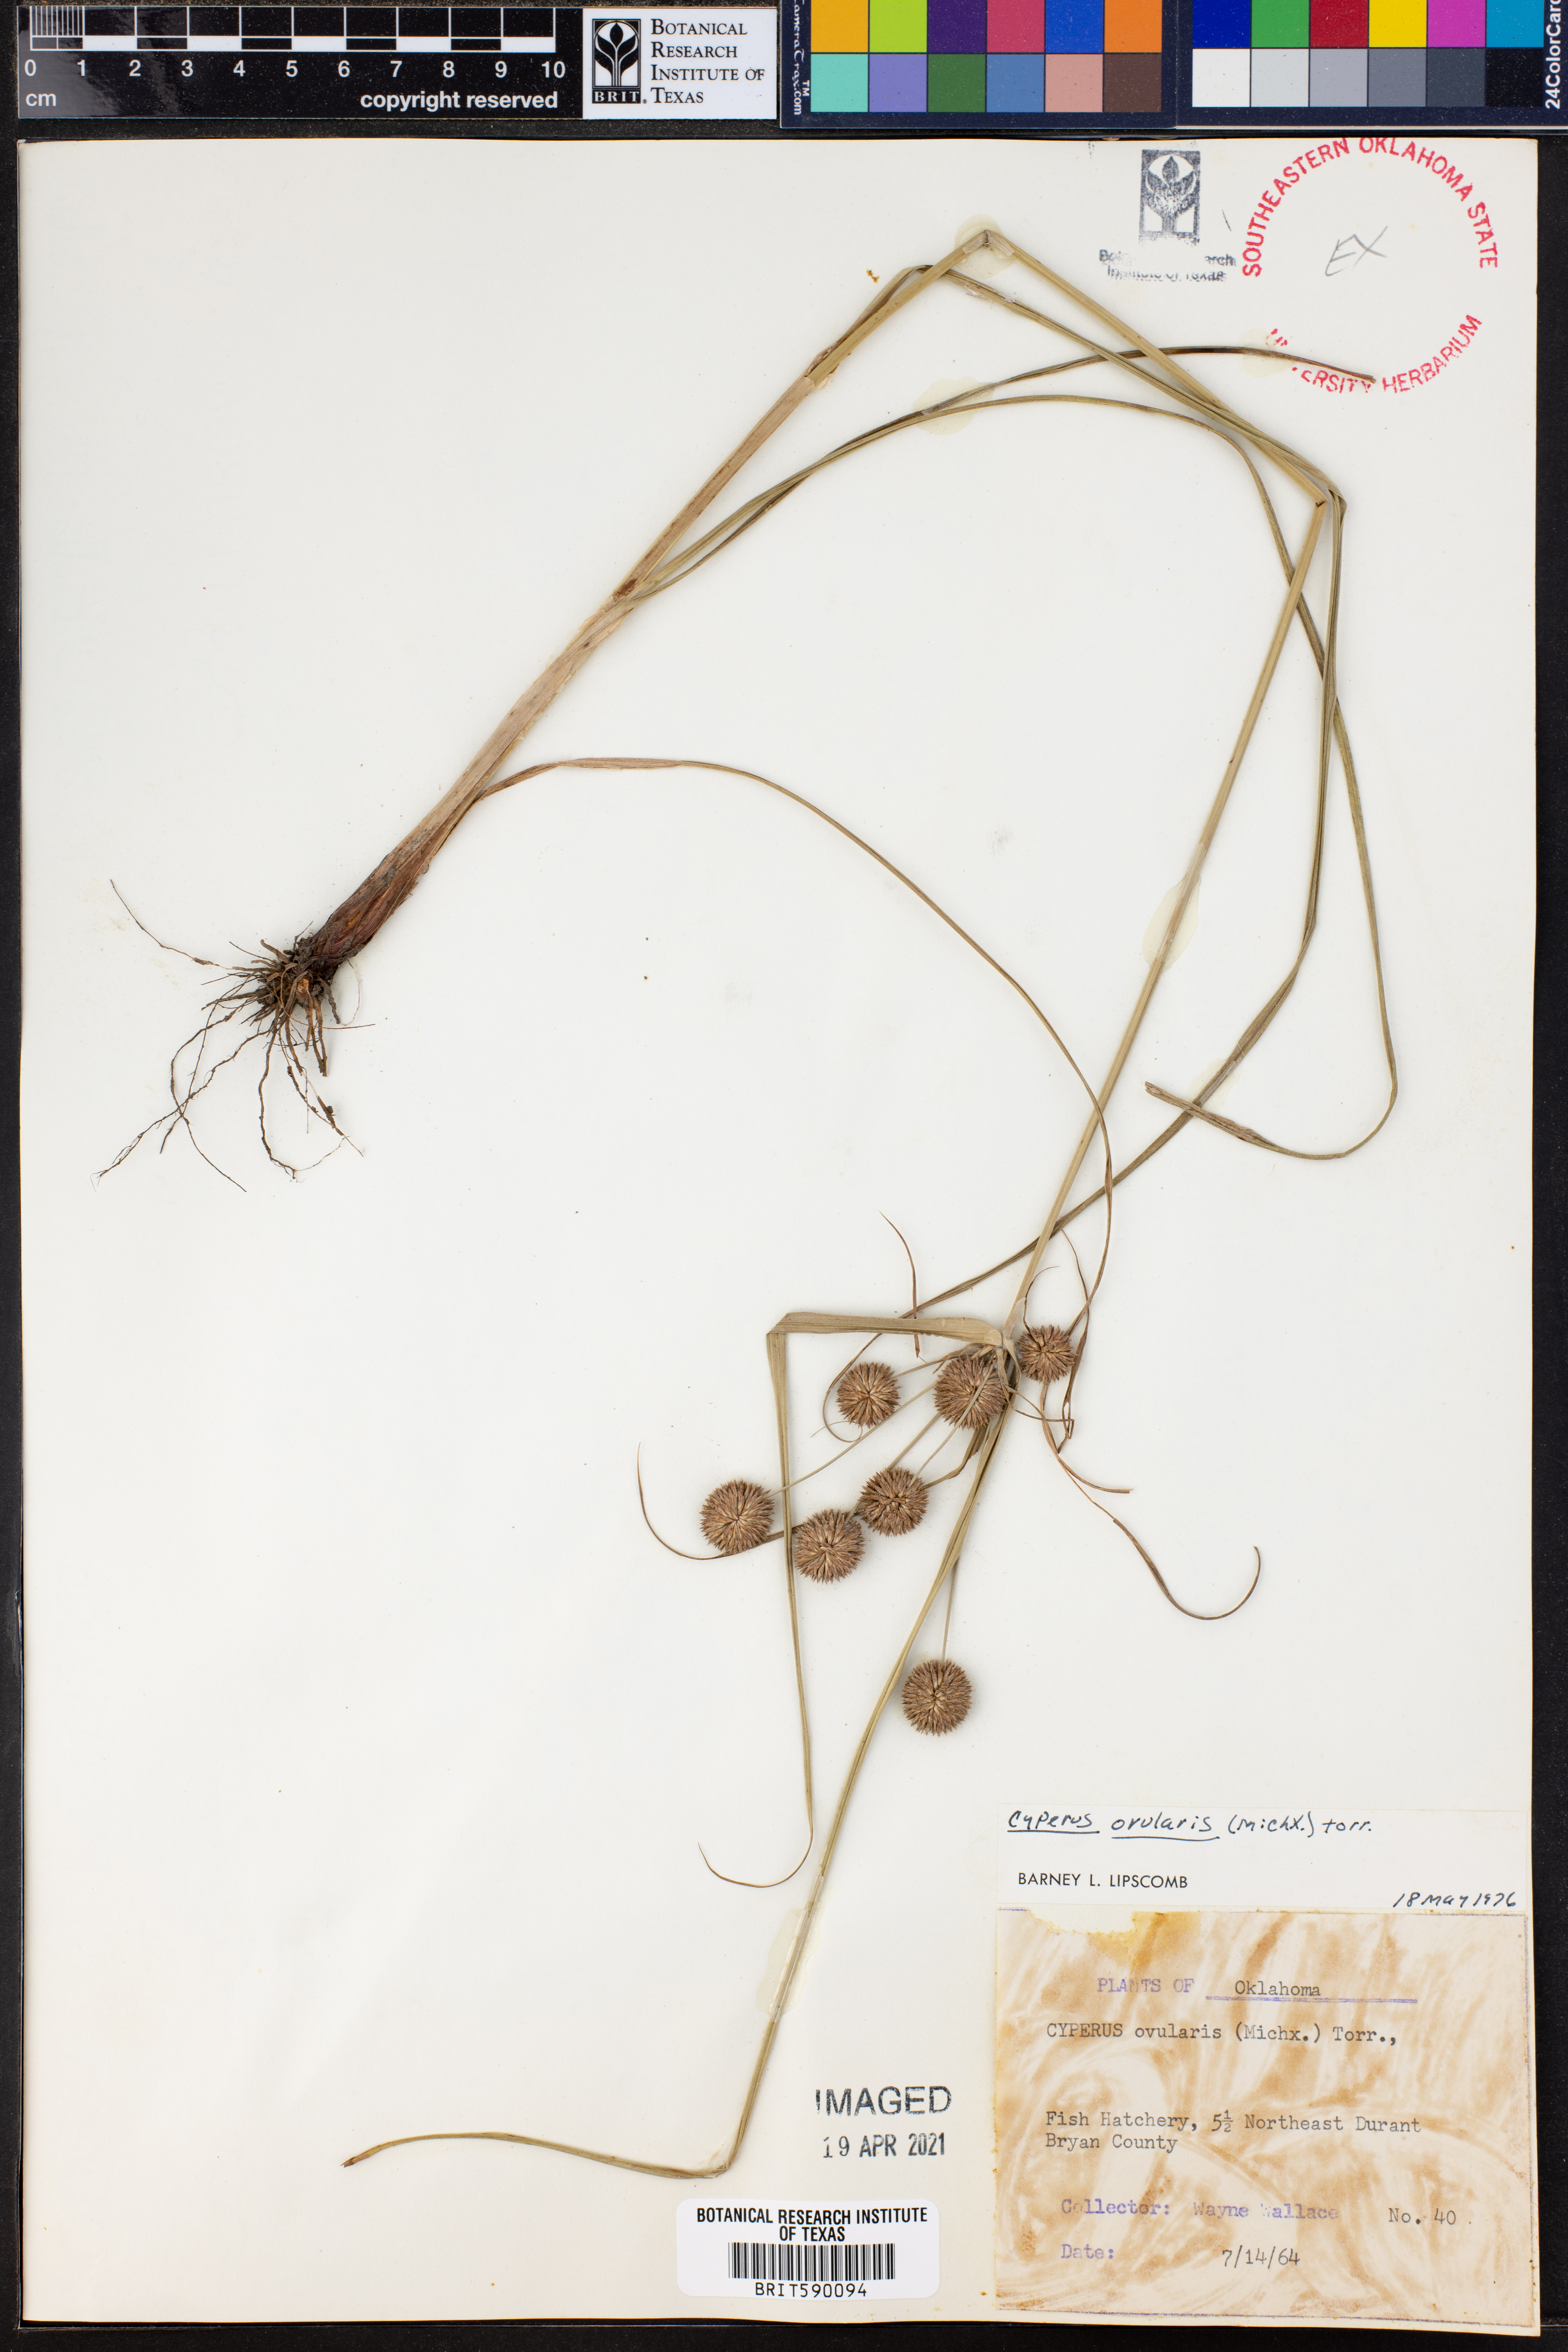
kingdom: Plantae
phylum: Tracheophyta
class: Liliopsida
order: Poales
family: Cyperaceae
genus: Cyperus
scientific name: Cyperus echinatus
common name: Teasel sedge
